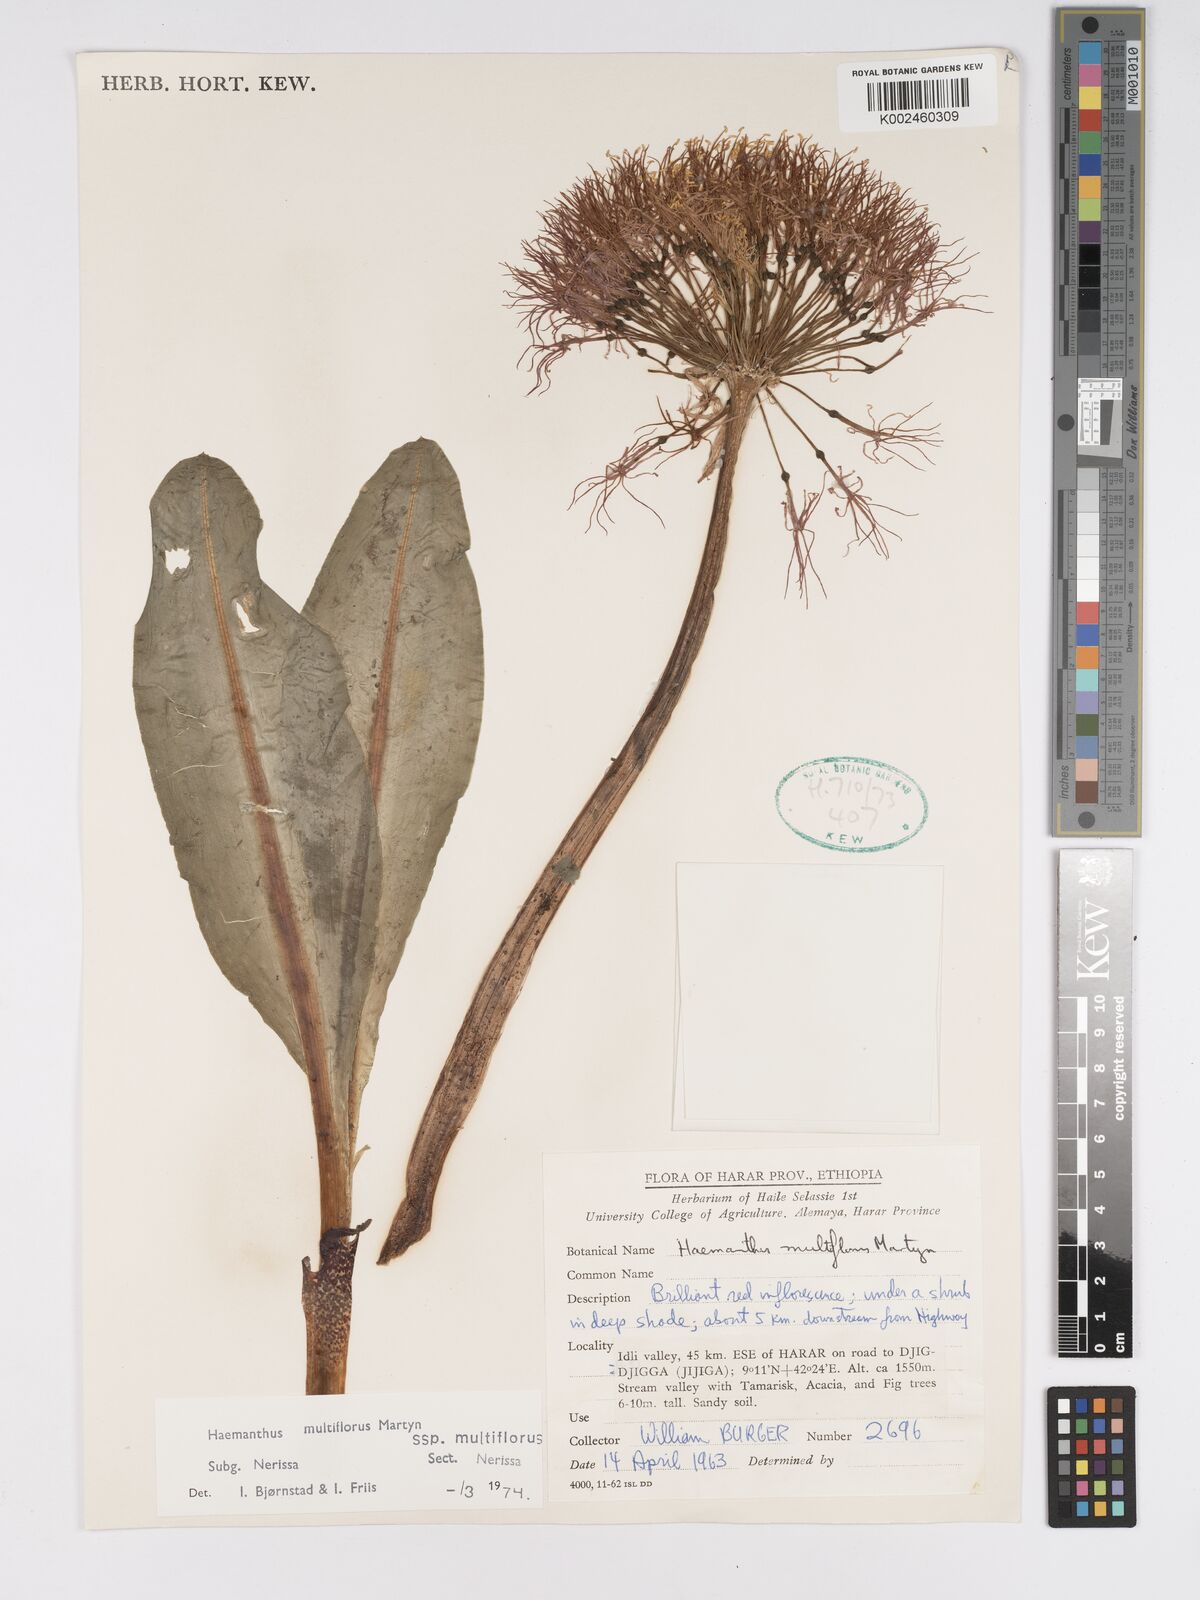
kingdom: Plantae
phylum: Tracheophyta
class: Liliopsida
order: Asparagales
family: Amaryllidaceae
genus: Scadoxus
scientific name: Scadoxus multiflorus
